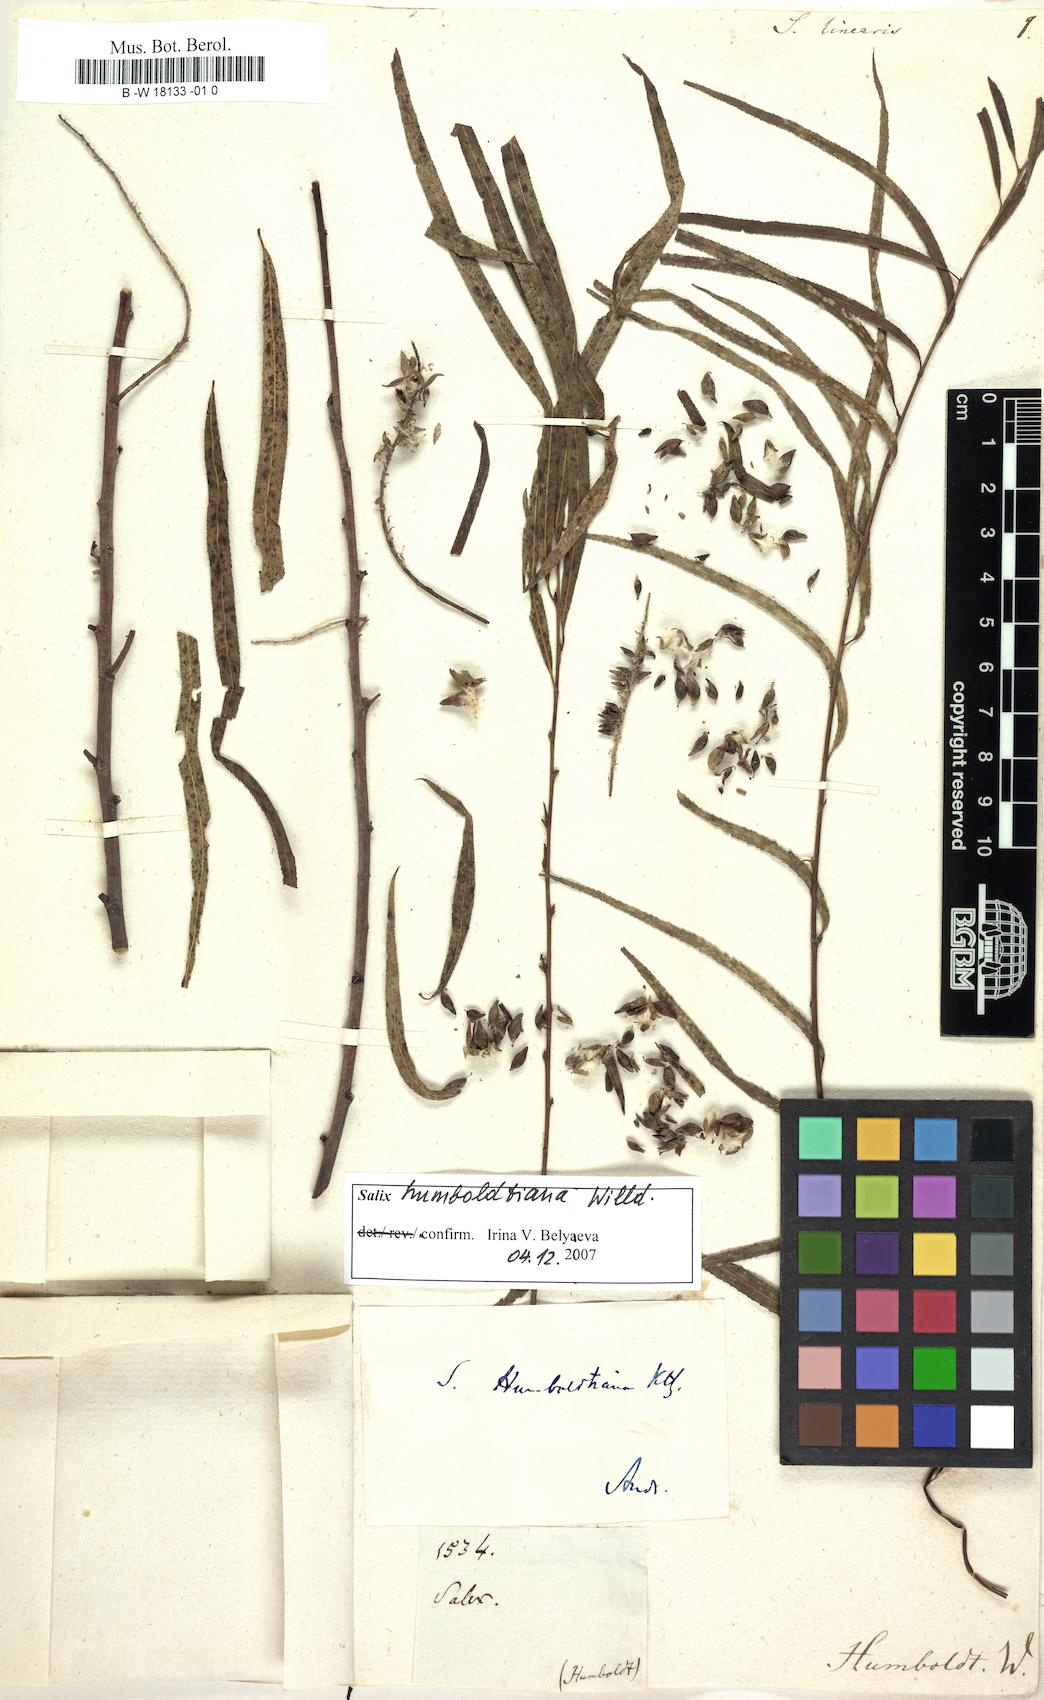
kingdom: Plantae
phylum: Tracheophyta
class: Magnoliopsida
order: Malpighiales
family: Salicaceae
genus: Salix
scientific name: Salix linearis
